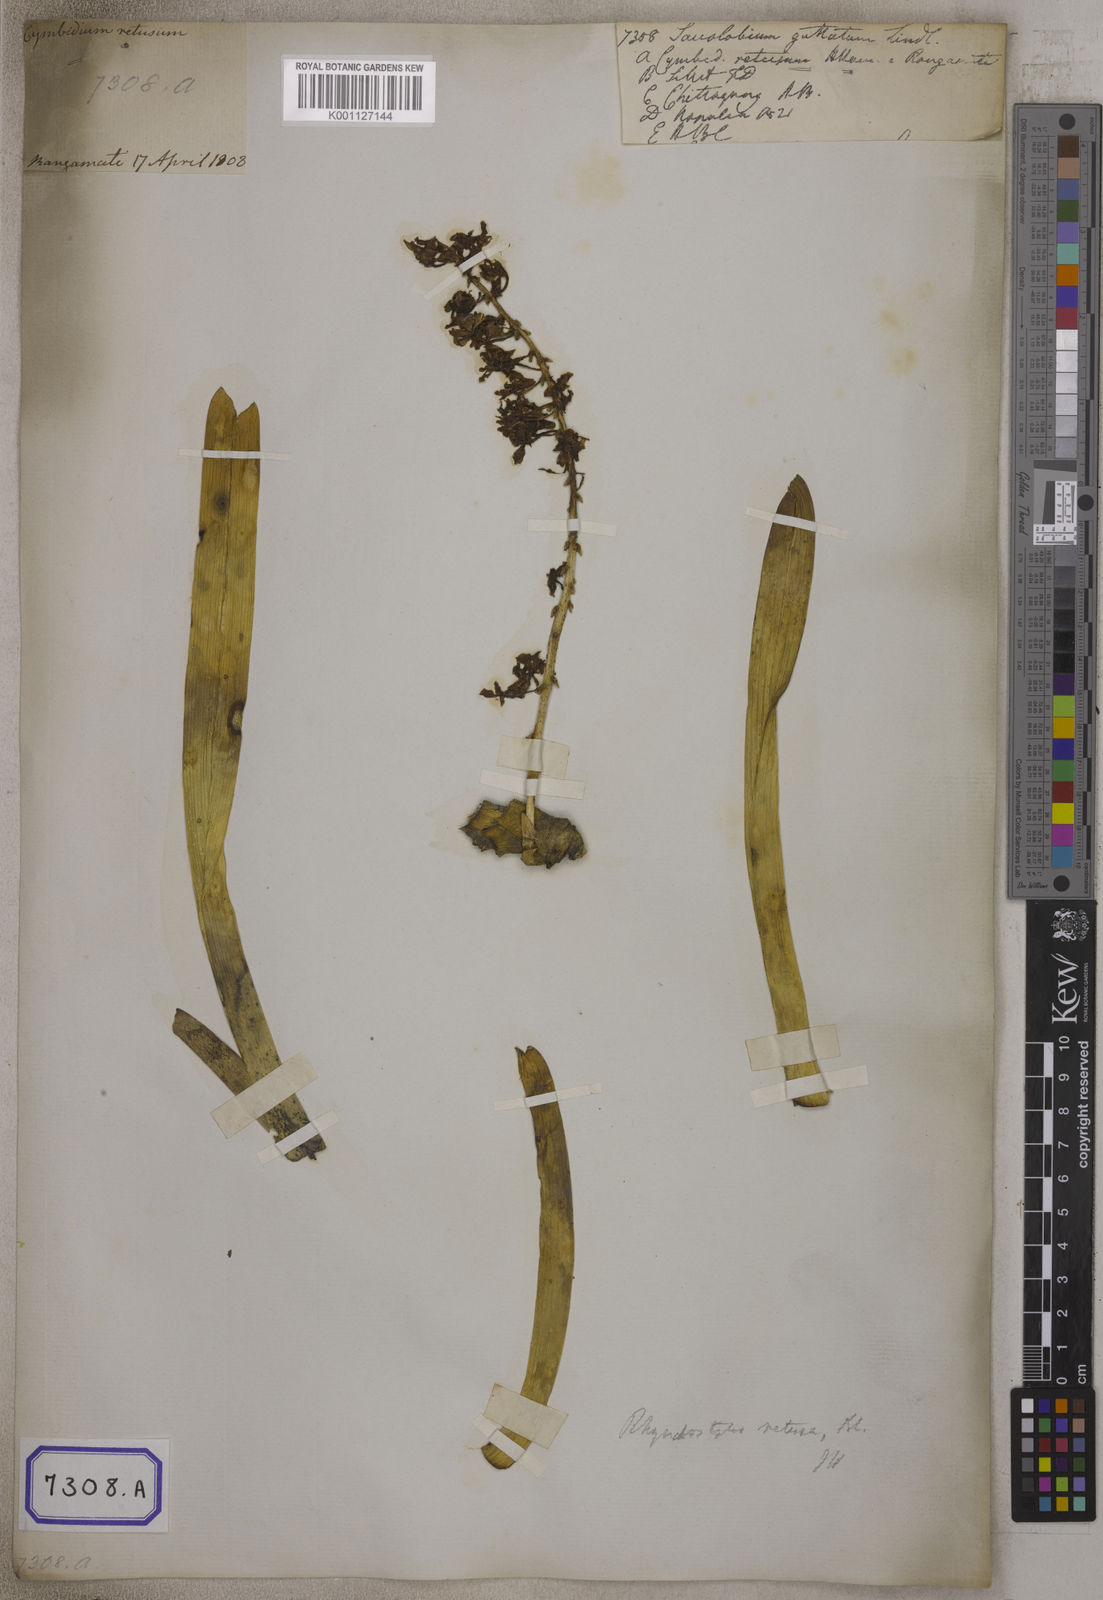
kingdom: Plantae
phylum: Tracheophyta
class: Liliopsida
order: Asparagales
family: Orchidaceae
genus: Saccolabium
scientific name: Saccolabium
